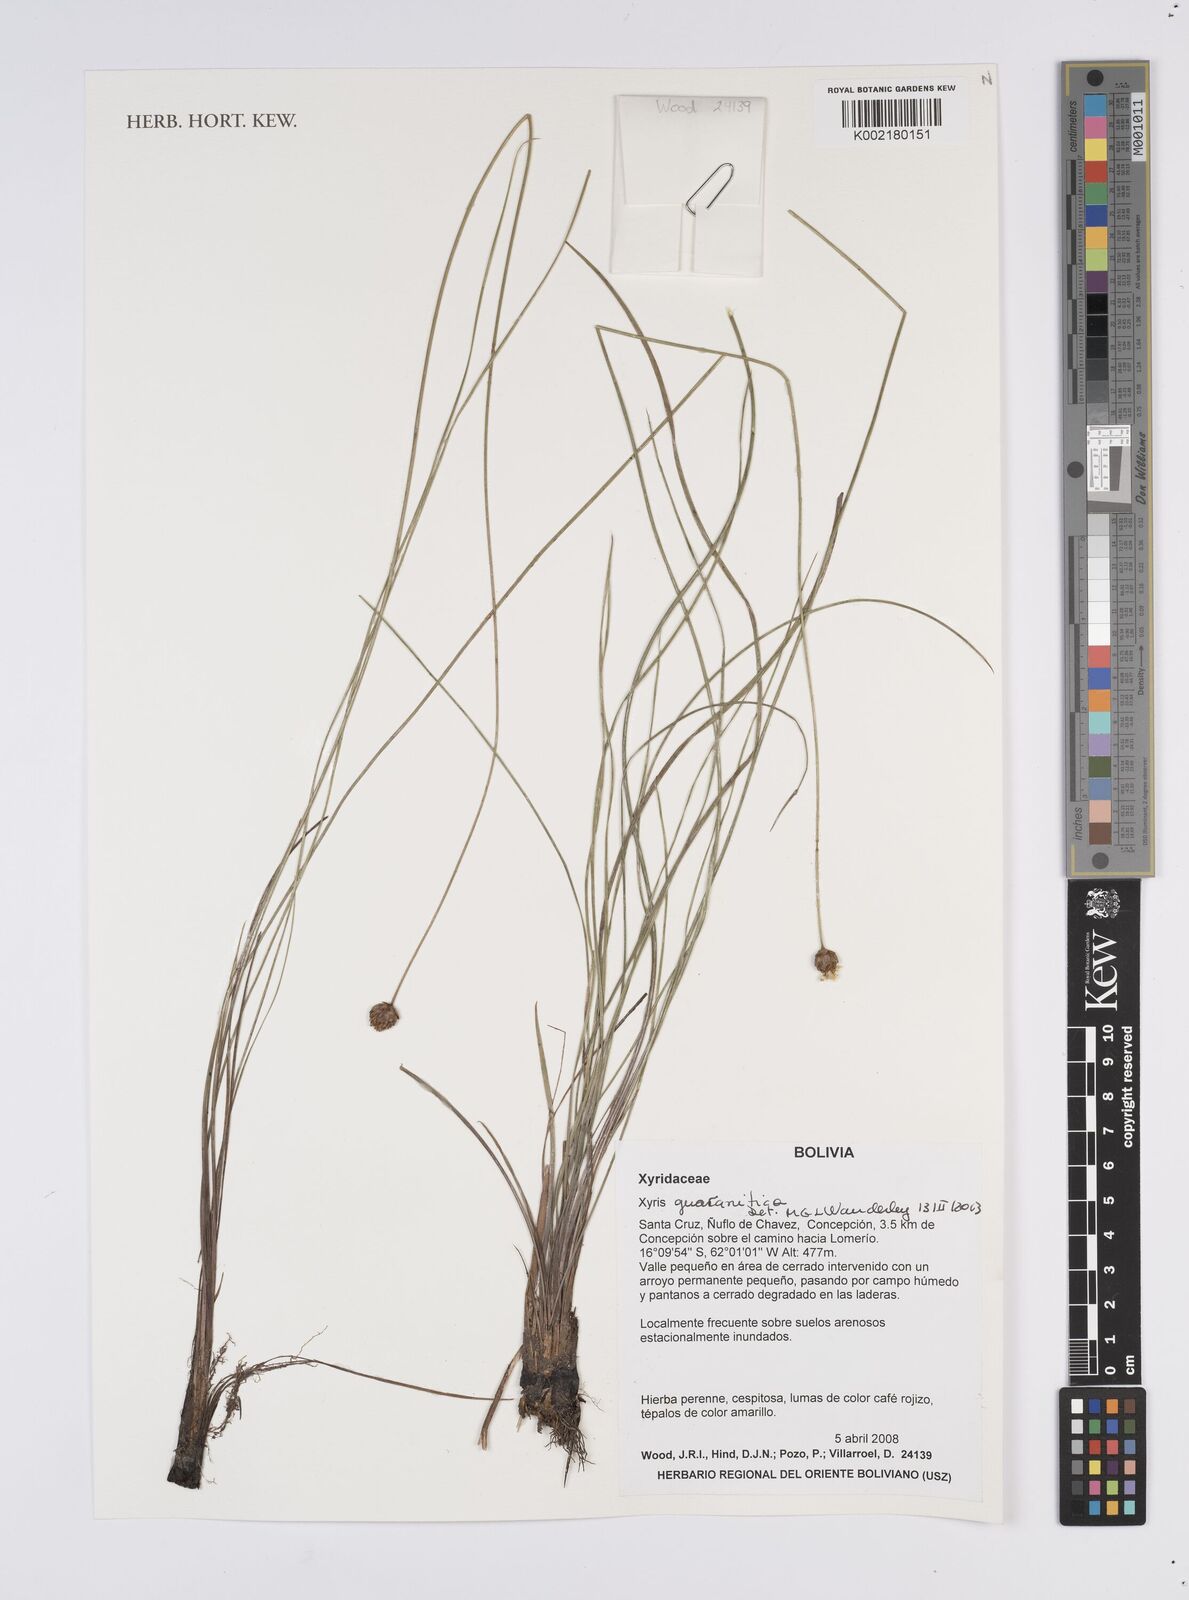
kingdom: Plantae
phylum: Tracheophyta
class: Liliopsida
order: Poales
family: Xyridaceae
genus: Xyris
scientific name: Xyris guaranitica
